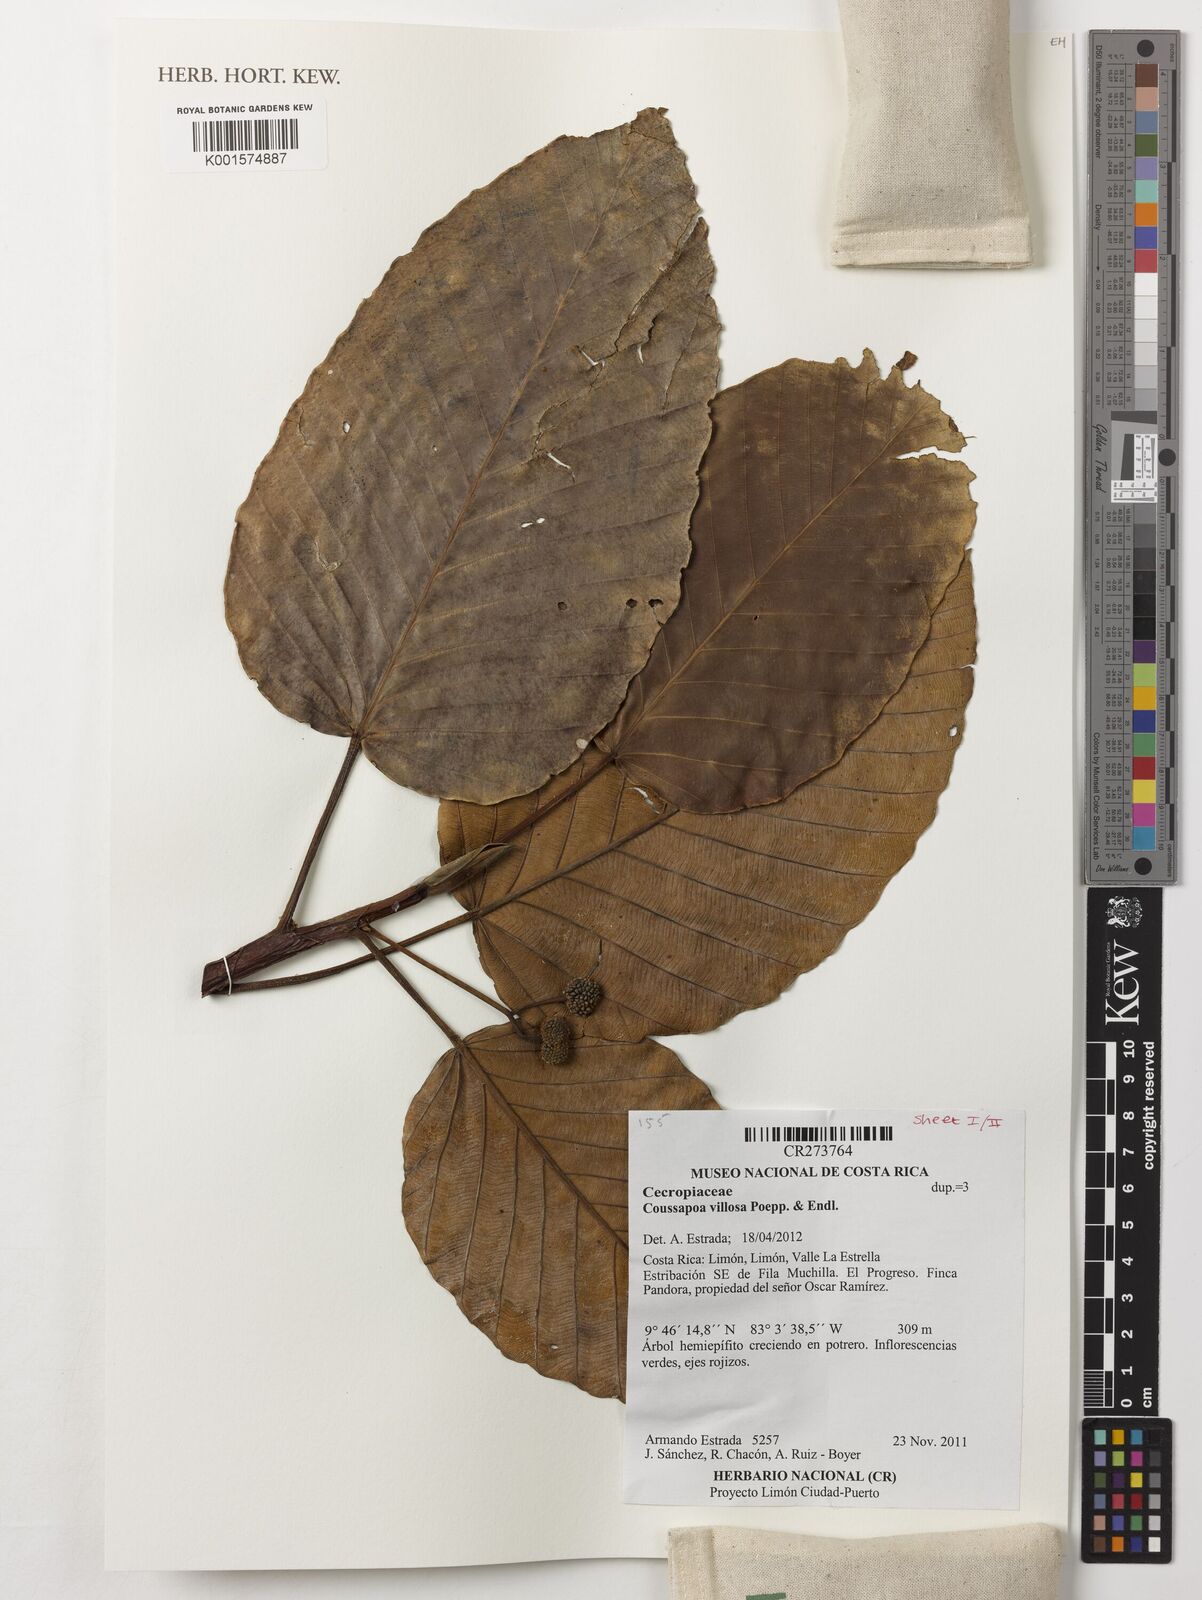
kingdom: Plantae
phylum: Tracheophyta
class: Magnoliopsida
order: Rosales
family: Urticaceae
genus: Coussapoa
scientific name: Coussapoa villosa
